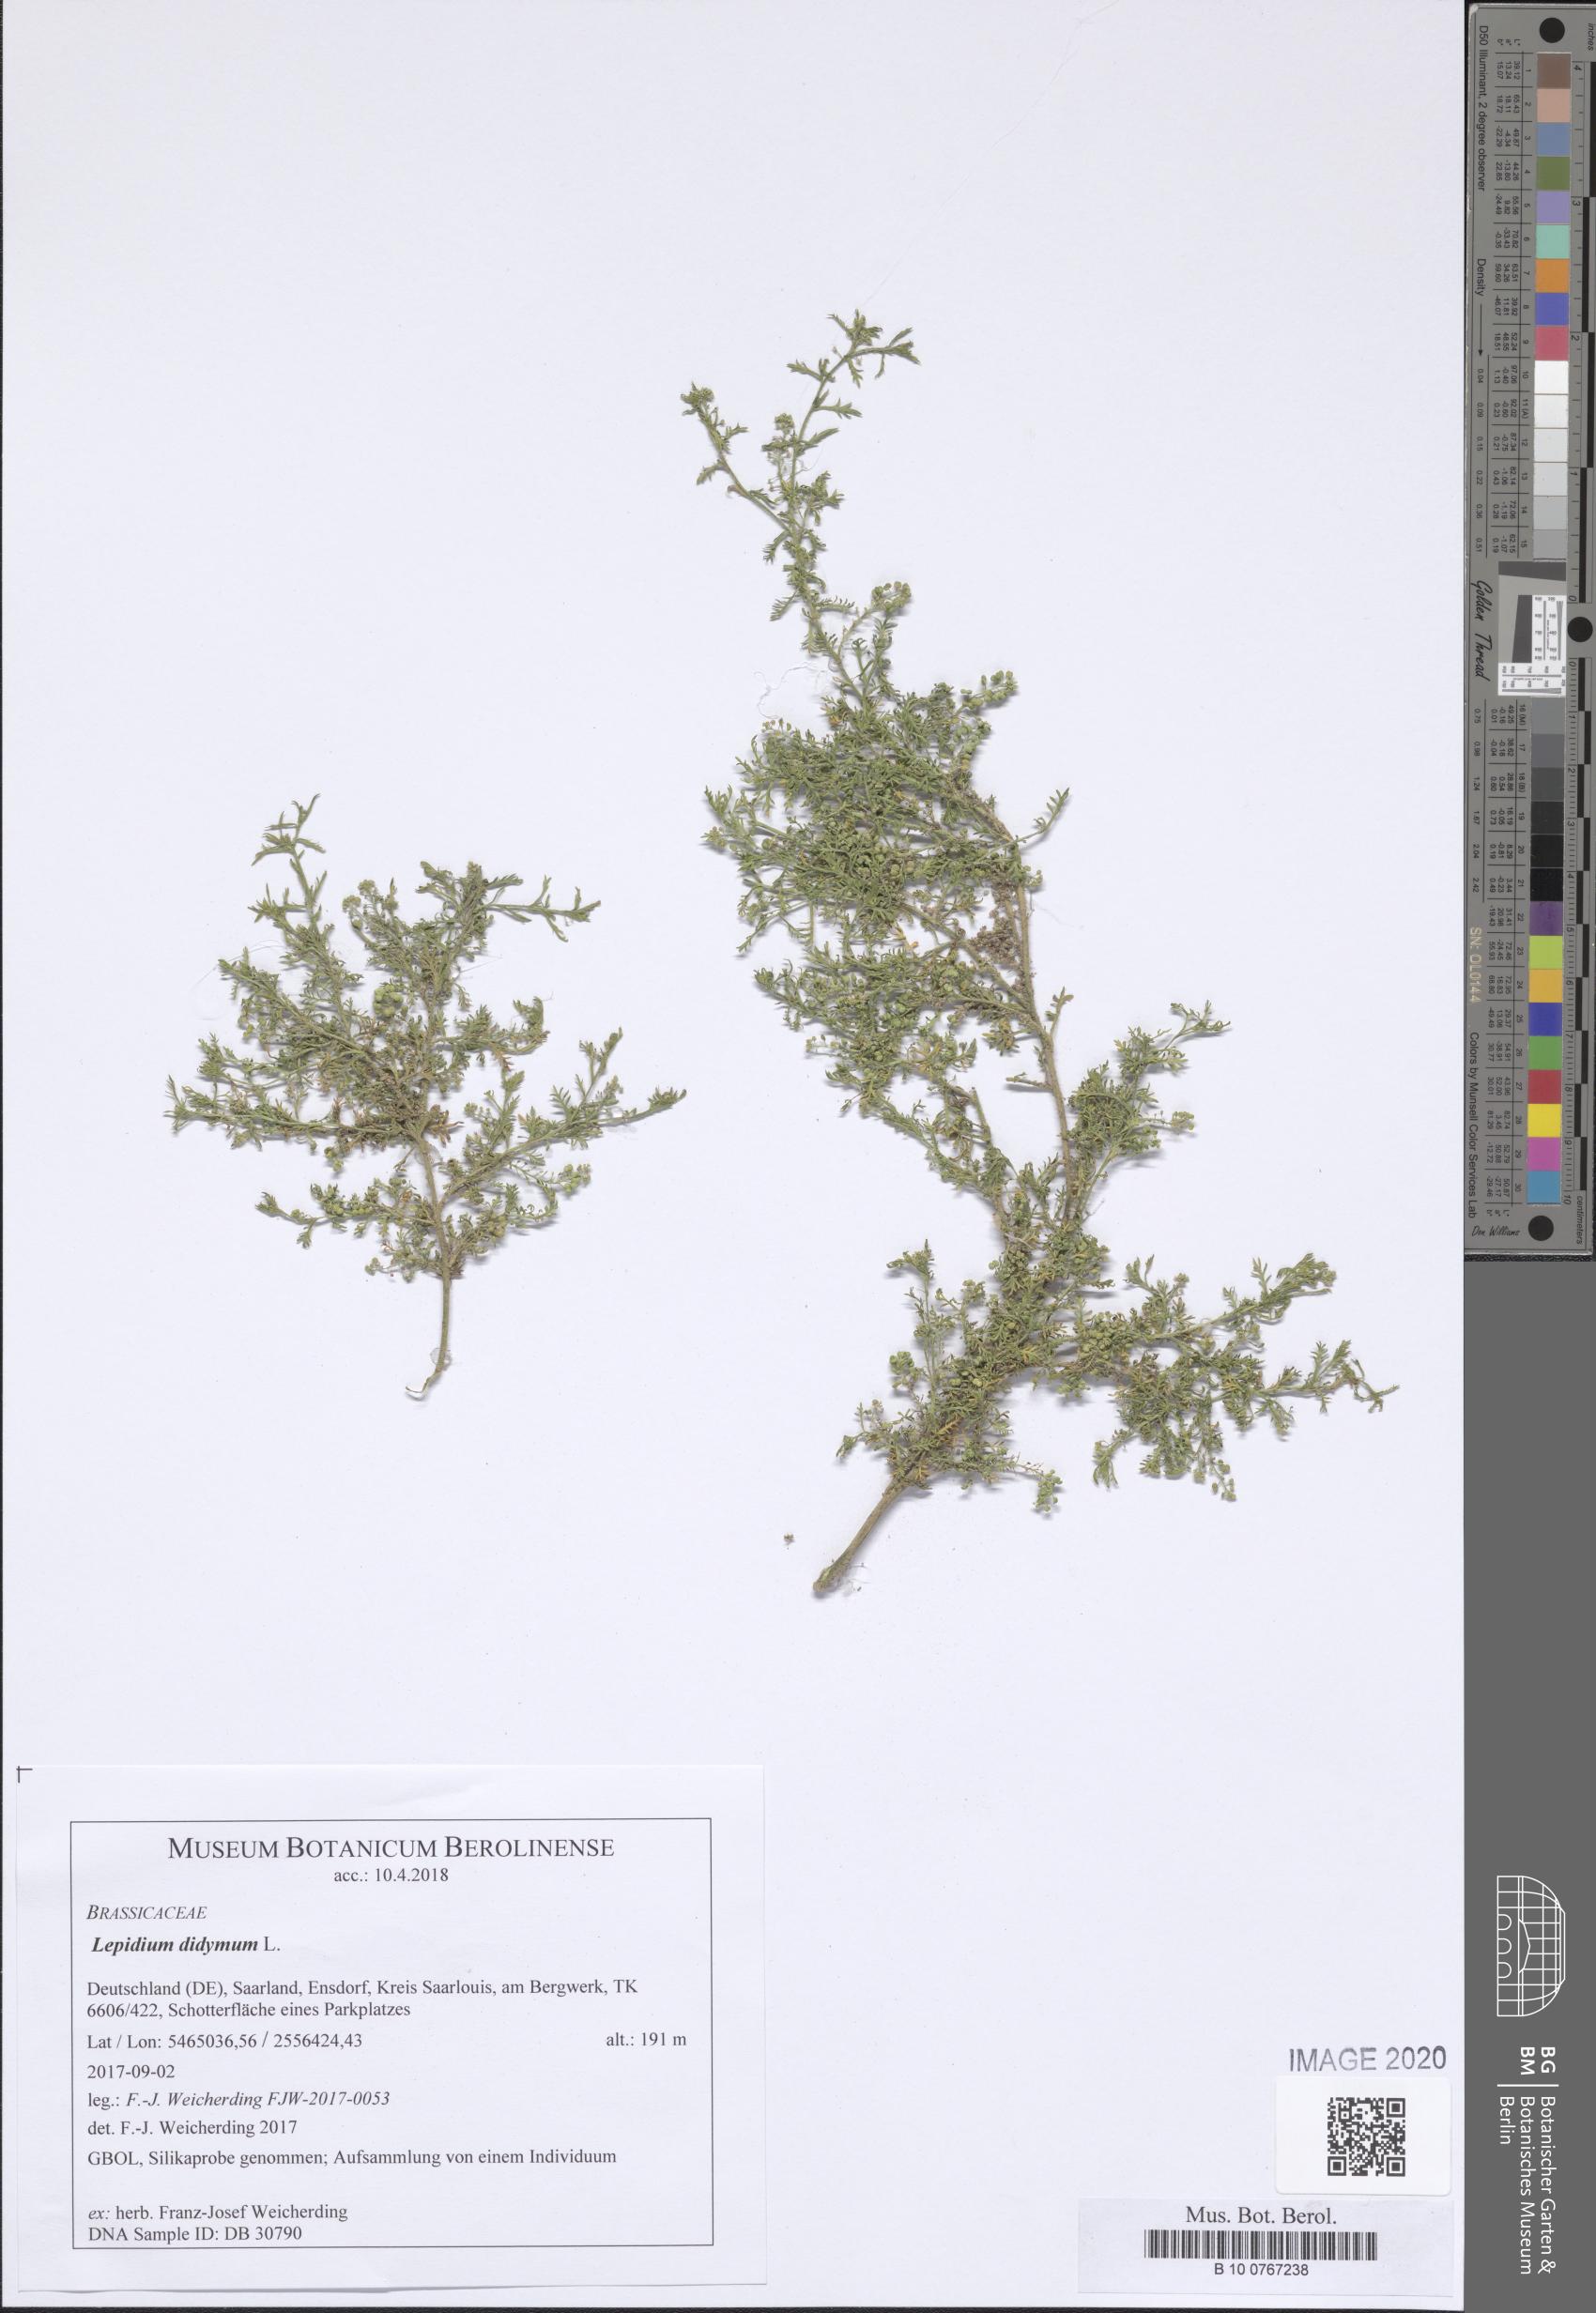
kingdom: Plantae
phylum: Tracheophyta
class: Magnoliopsida
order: Brassicales
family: Brassicaceae
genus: Lepidium
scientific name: Lepidium didymum
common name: Lesser swinecress
